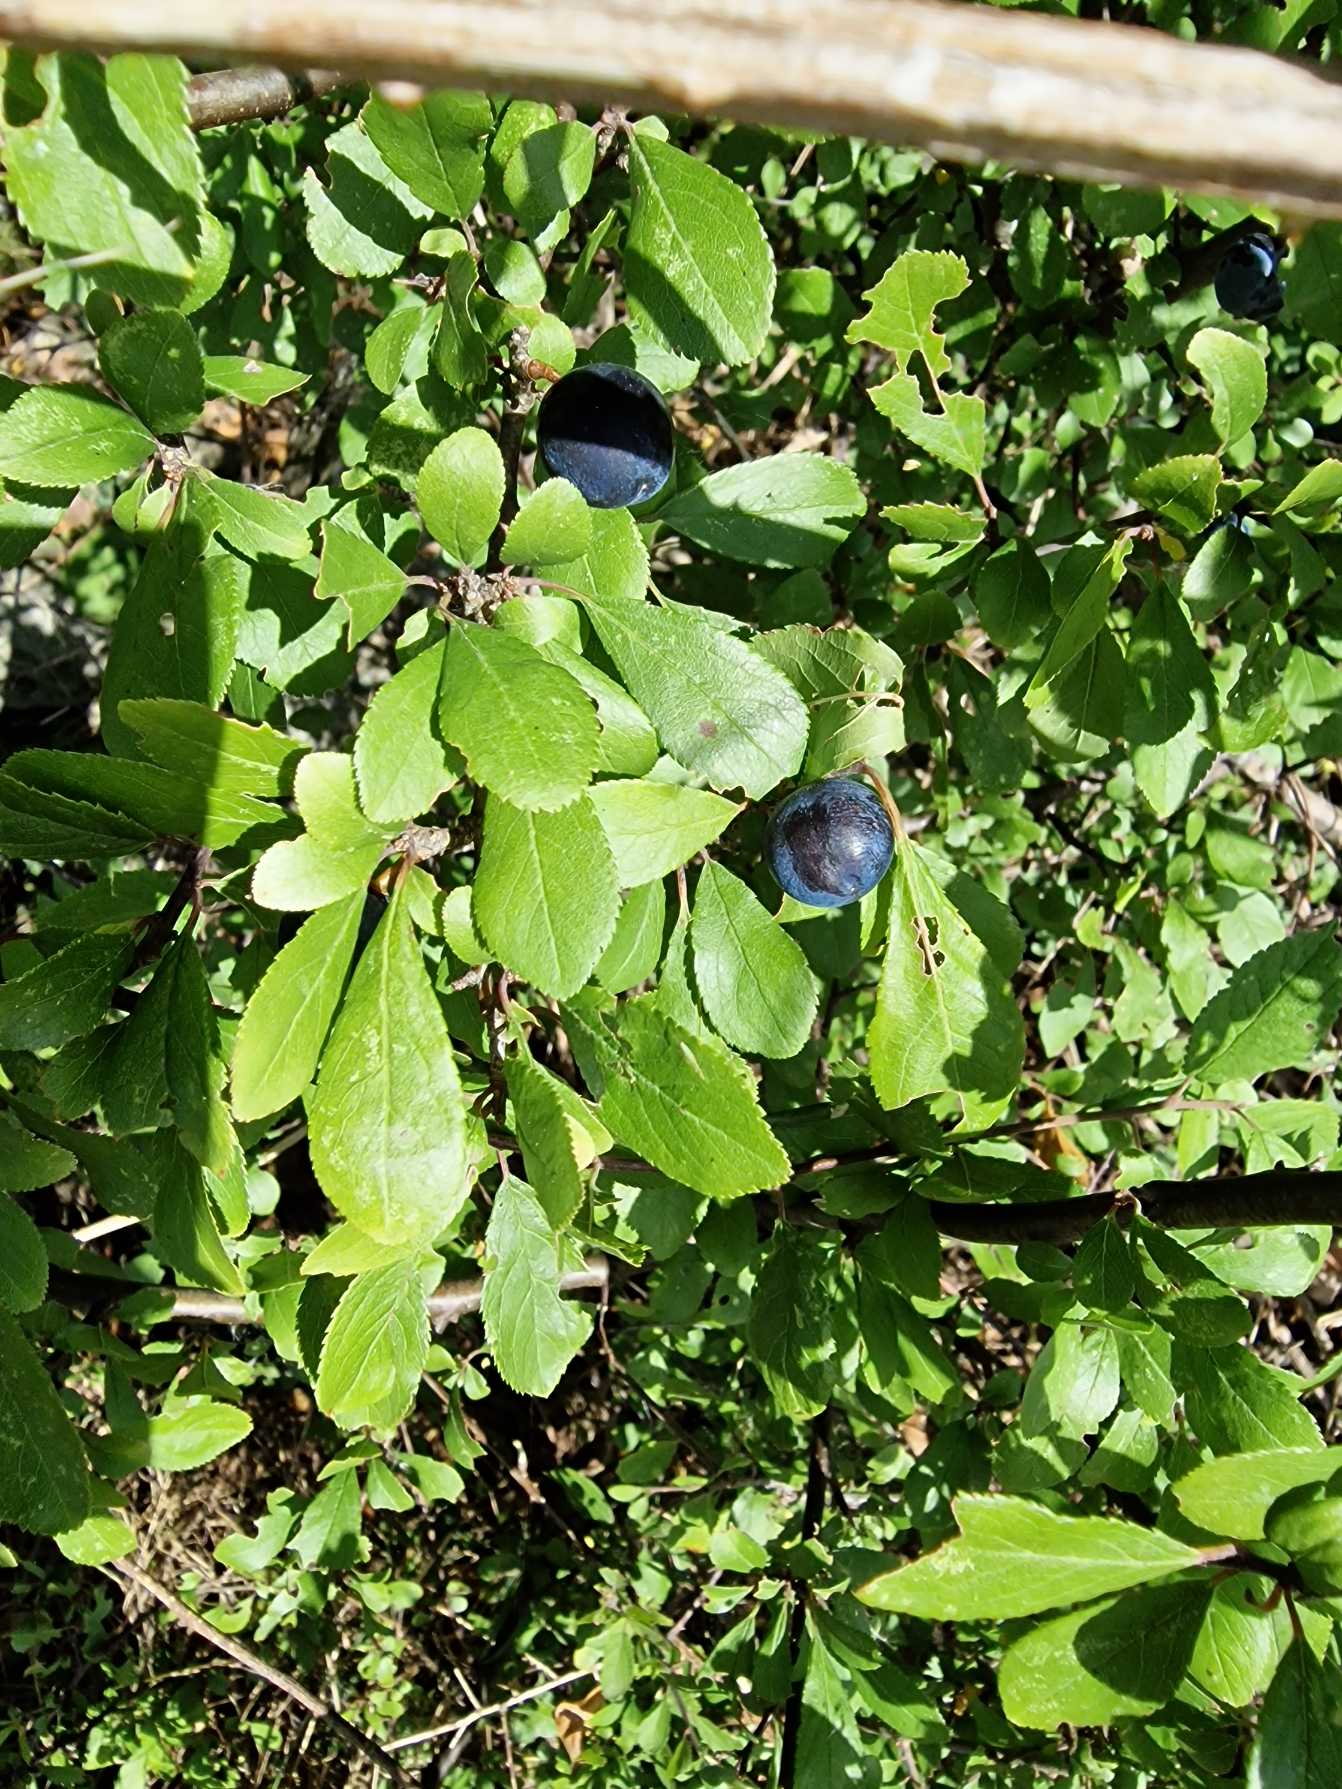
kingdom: Plantae
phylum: Tracheophyta
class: Magnoliopsida
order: Rosales
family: Rosaceae
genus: Prunus
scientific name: Prunus spinosa
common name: Slåen
